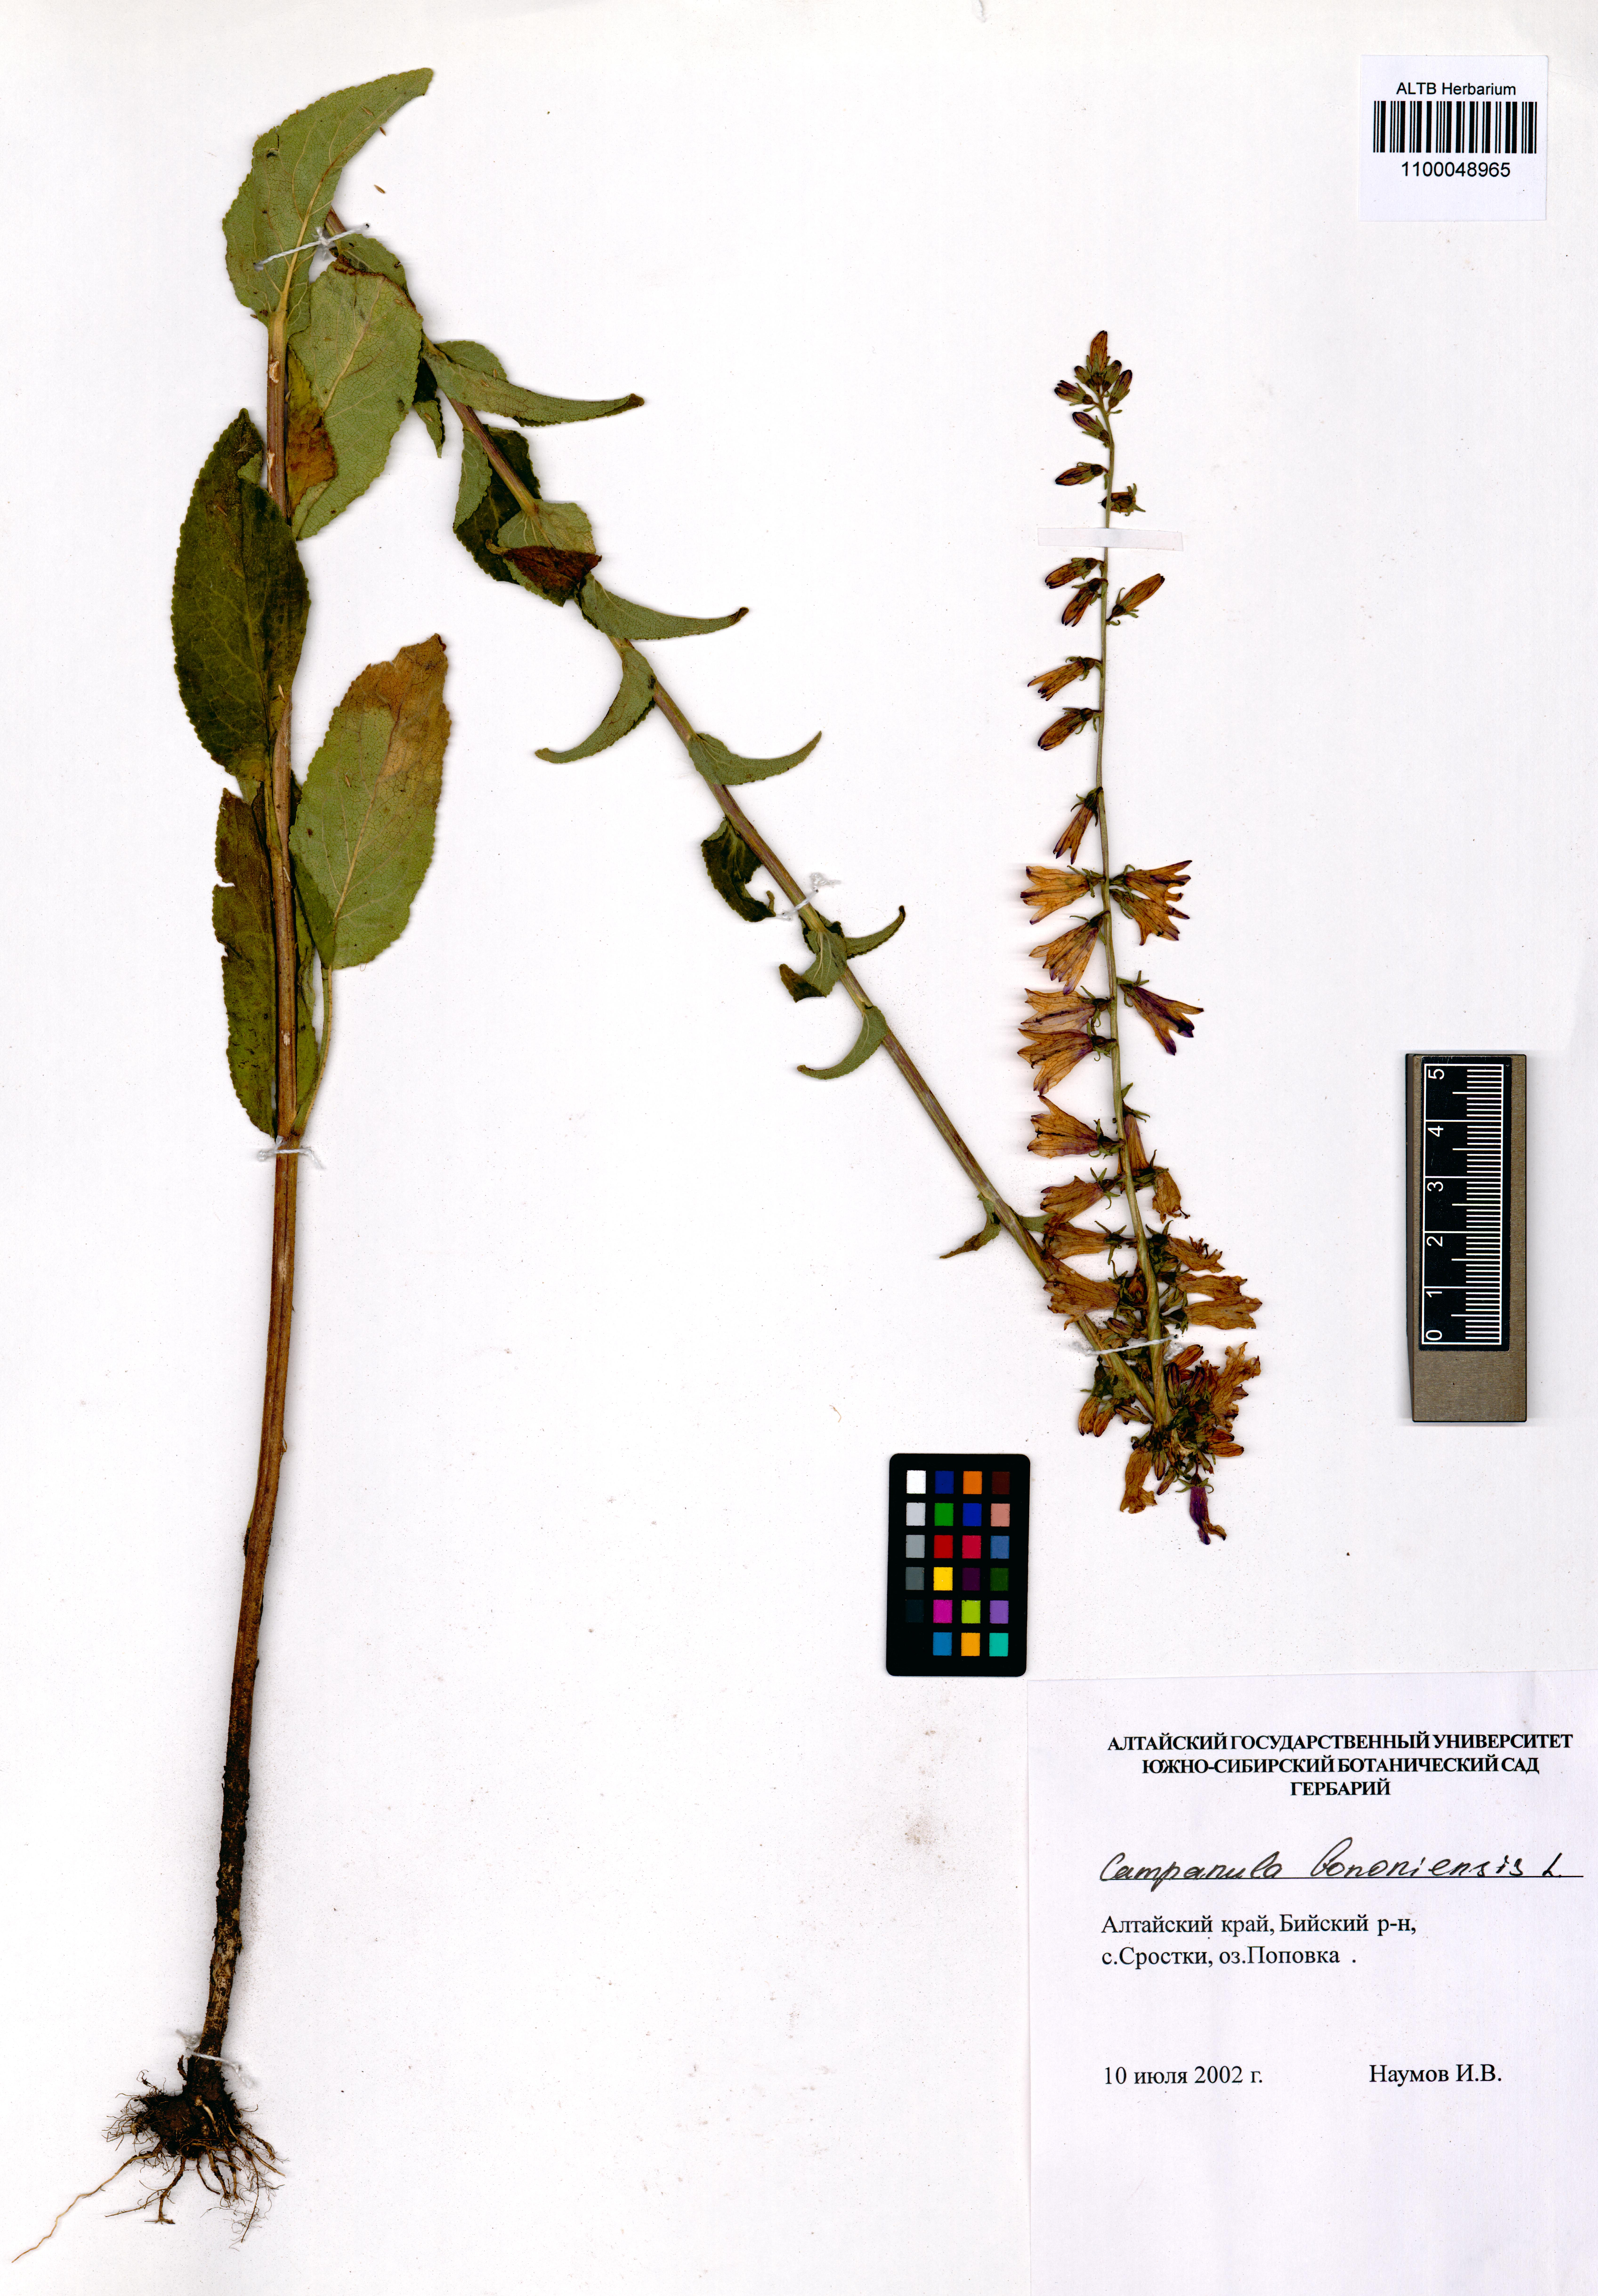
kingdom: Plantae
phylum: Tracheophyta
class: Magnoliopsida
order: Asterales
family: Campanulaceae
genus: Campanula
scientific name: Campanula bononiensis
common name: Pale bellflower
